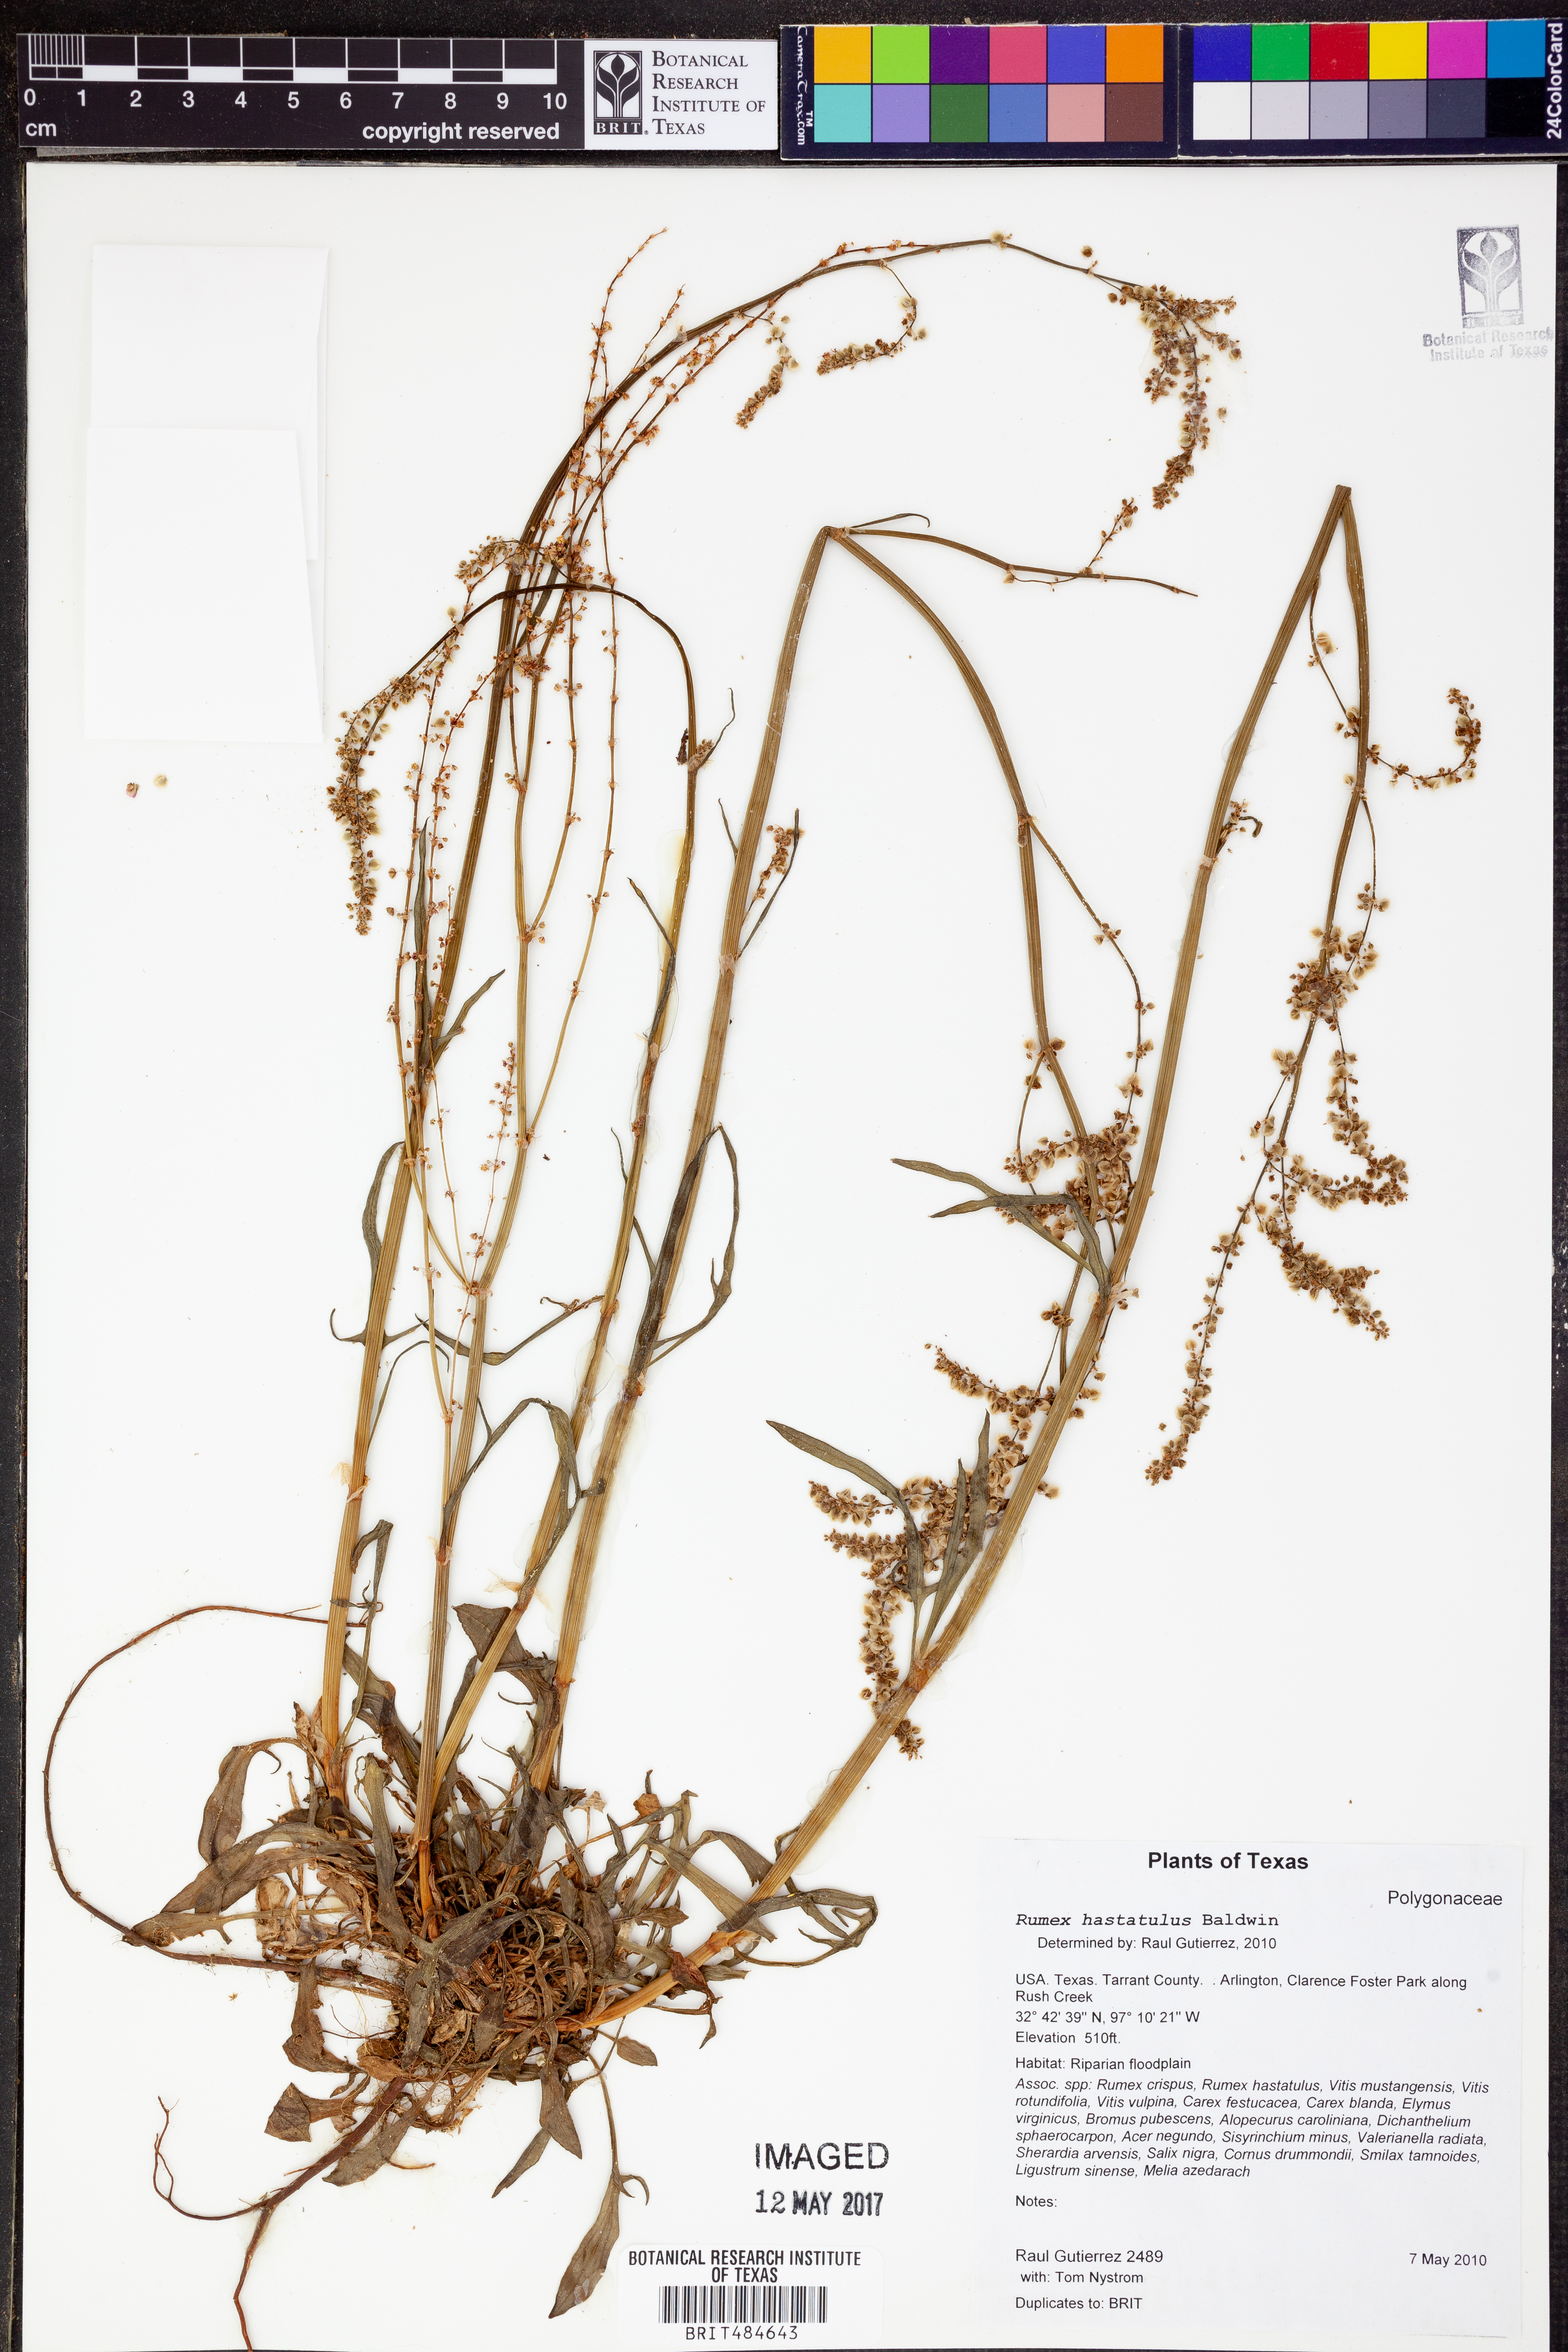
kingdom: Plantae
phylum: Tracheophyta
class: Magnoliopsida
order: Caryophyllales
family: Polygonaceae
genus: Rumex
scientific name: Rumex hastatulus
